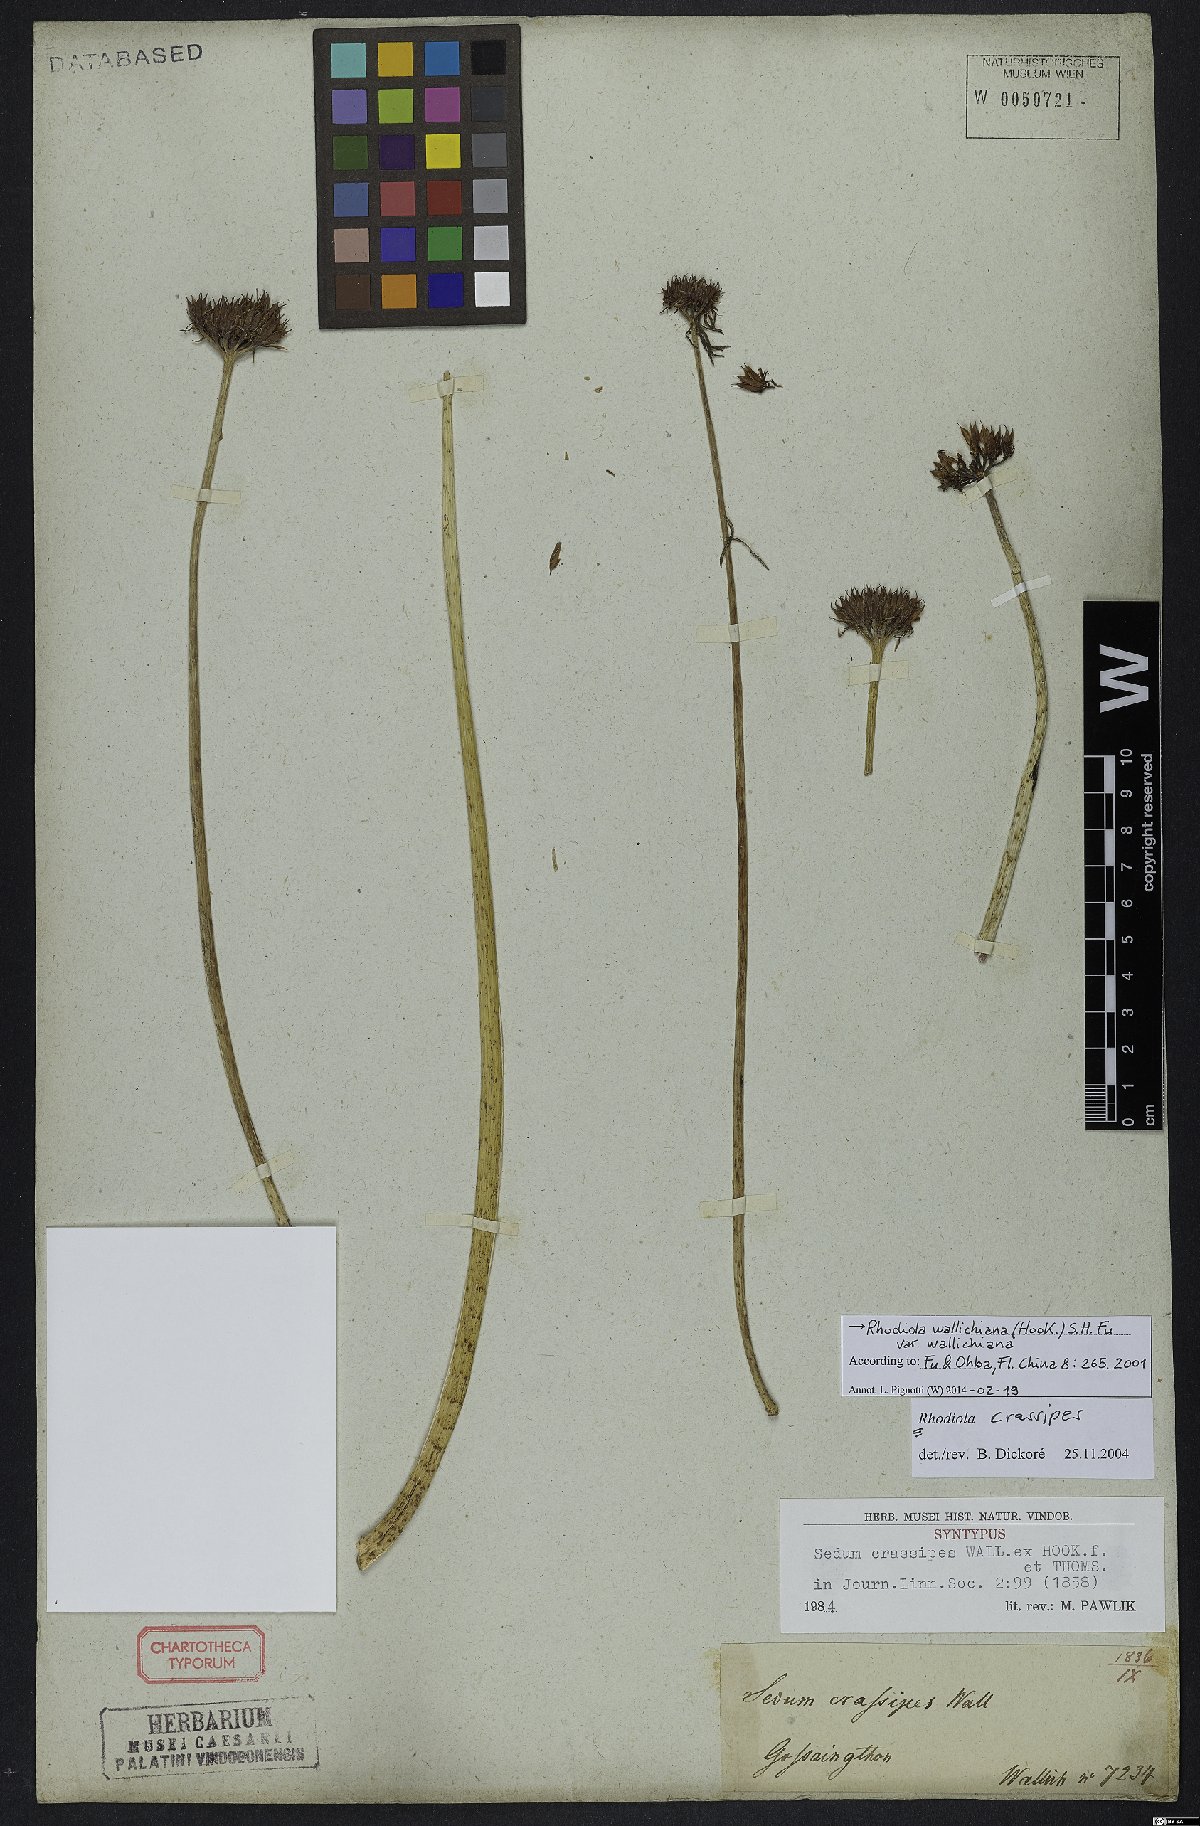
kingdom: Plantae
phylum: Tracheophyta
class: Magnoliopsida
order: Saxifragales
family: Crassulaceae
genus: Rhodiola
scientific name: Rhodiola wallichiana
